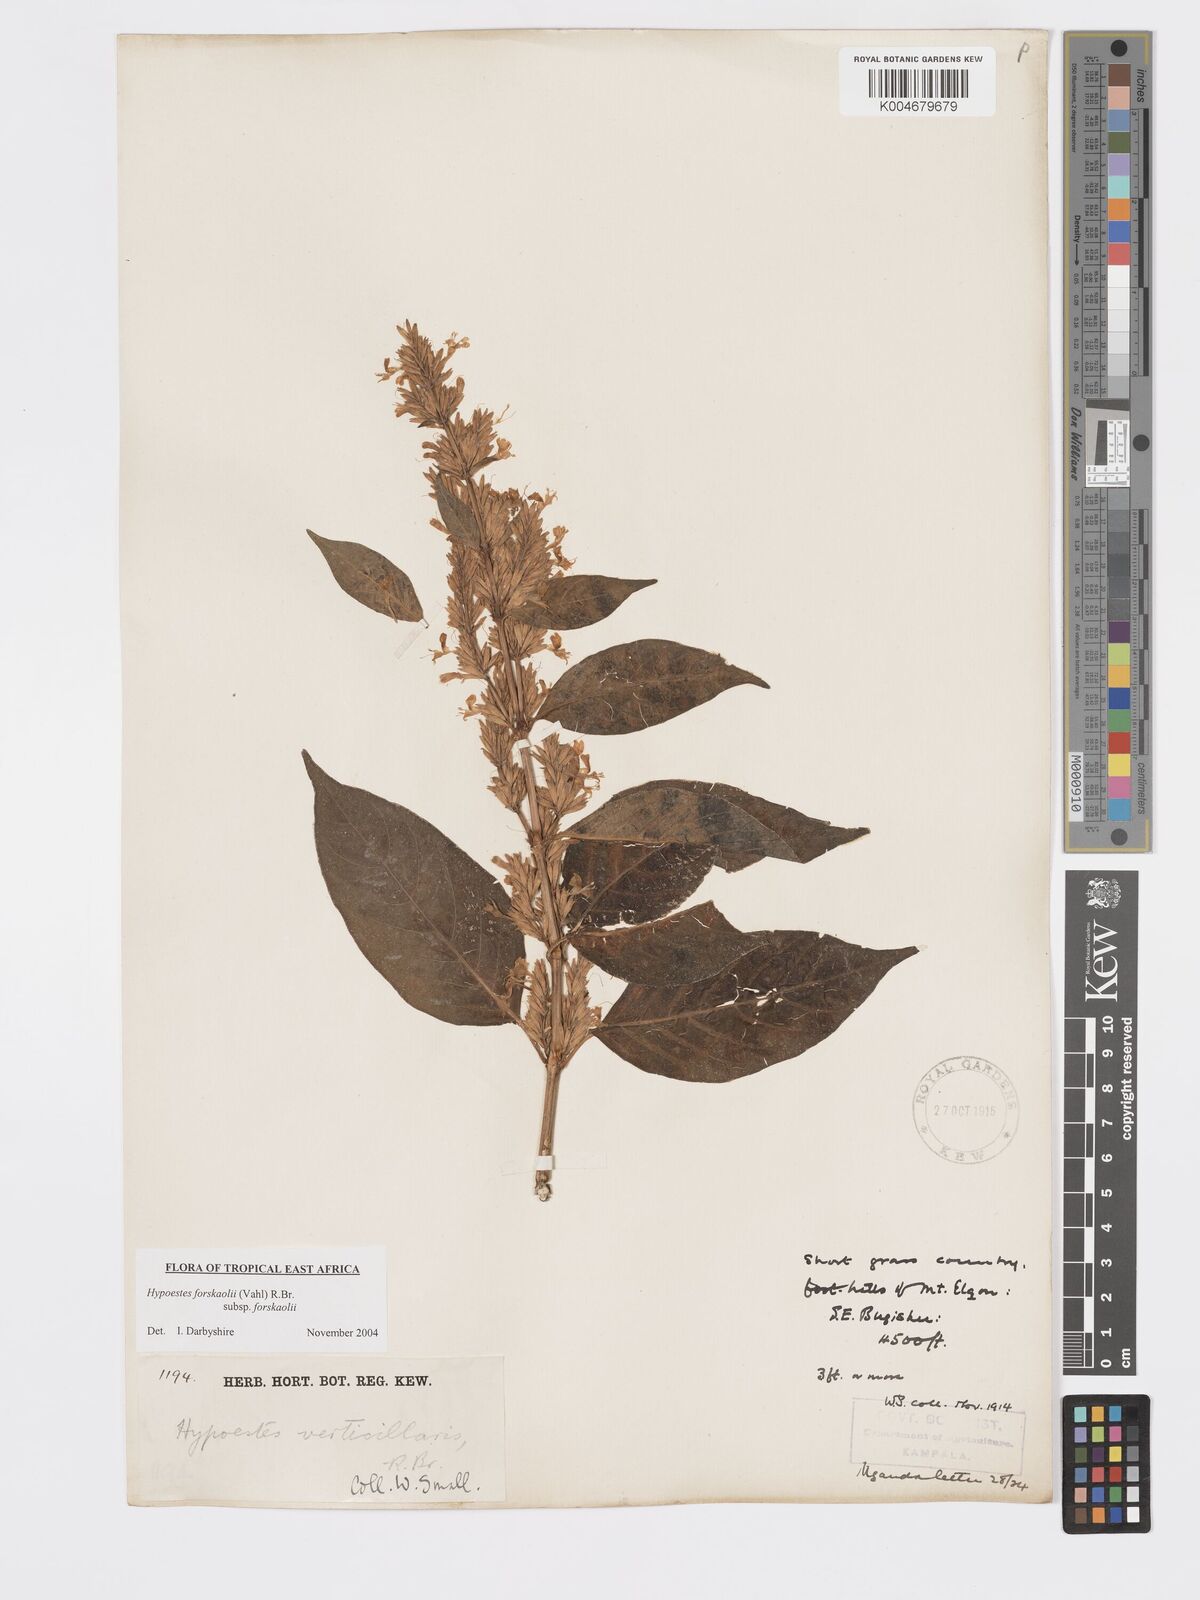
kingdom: Plantae
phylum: Tracheophyta
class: Magnoliopsida
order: Lamiales
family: Acanthaceae
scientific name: Acanthaceae
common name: Acanthaceae
